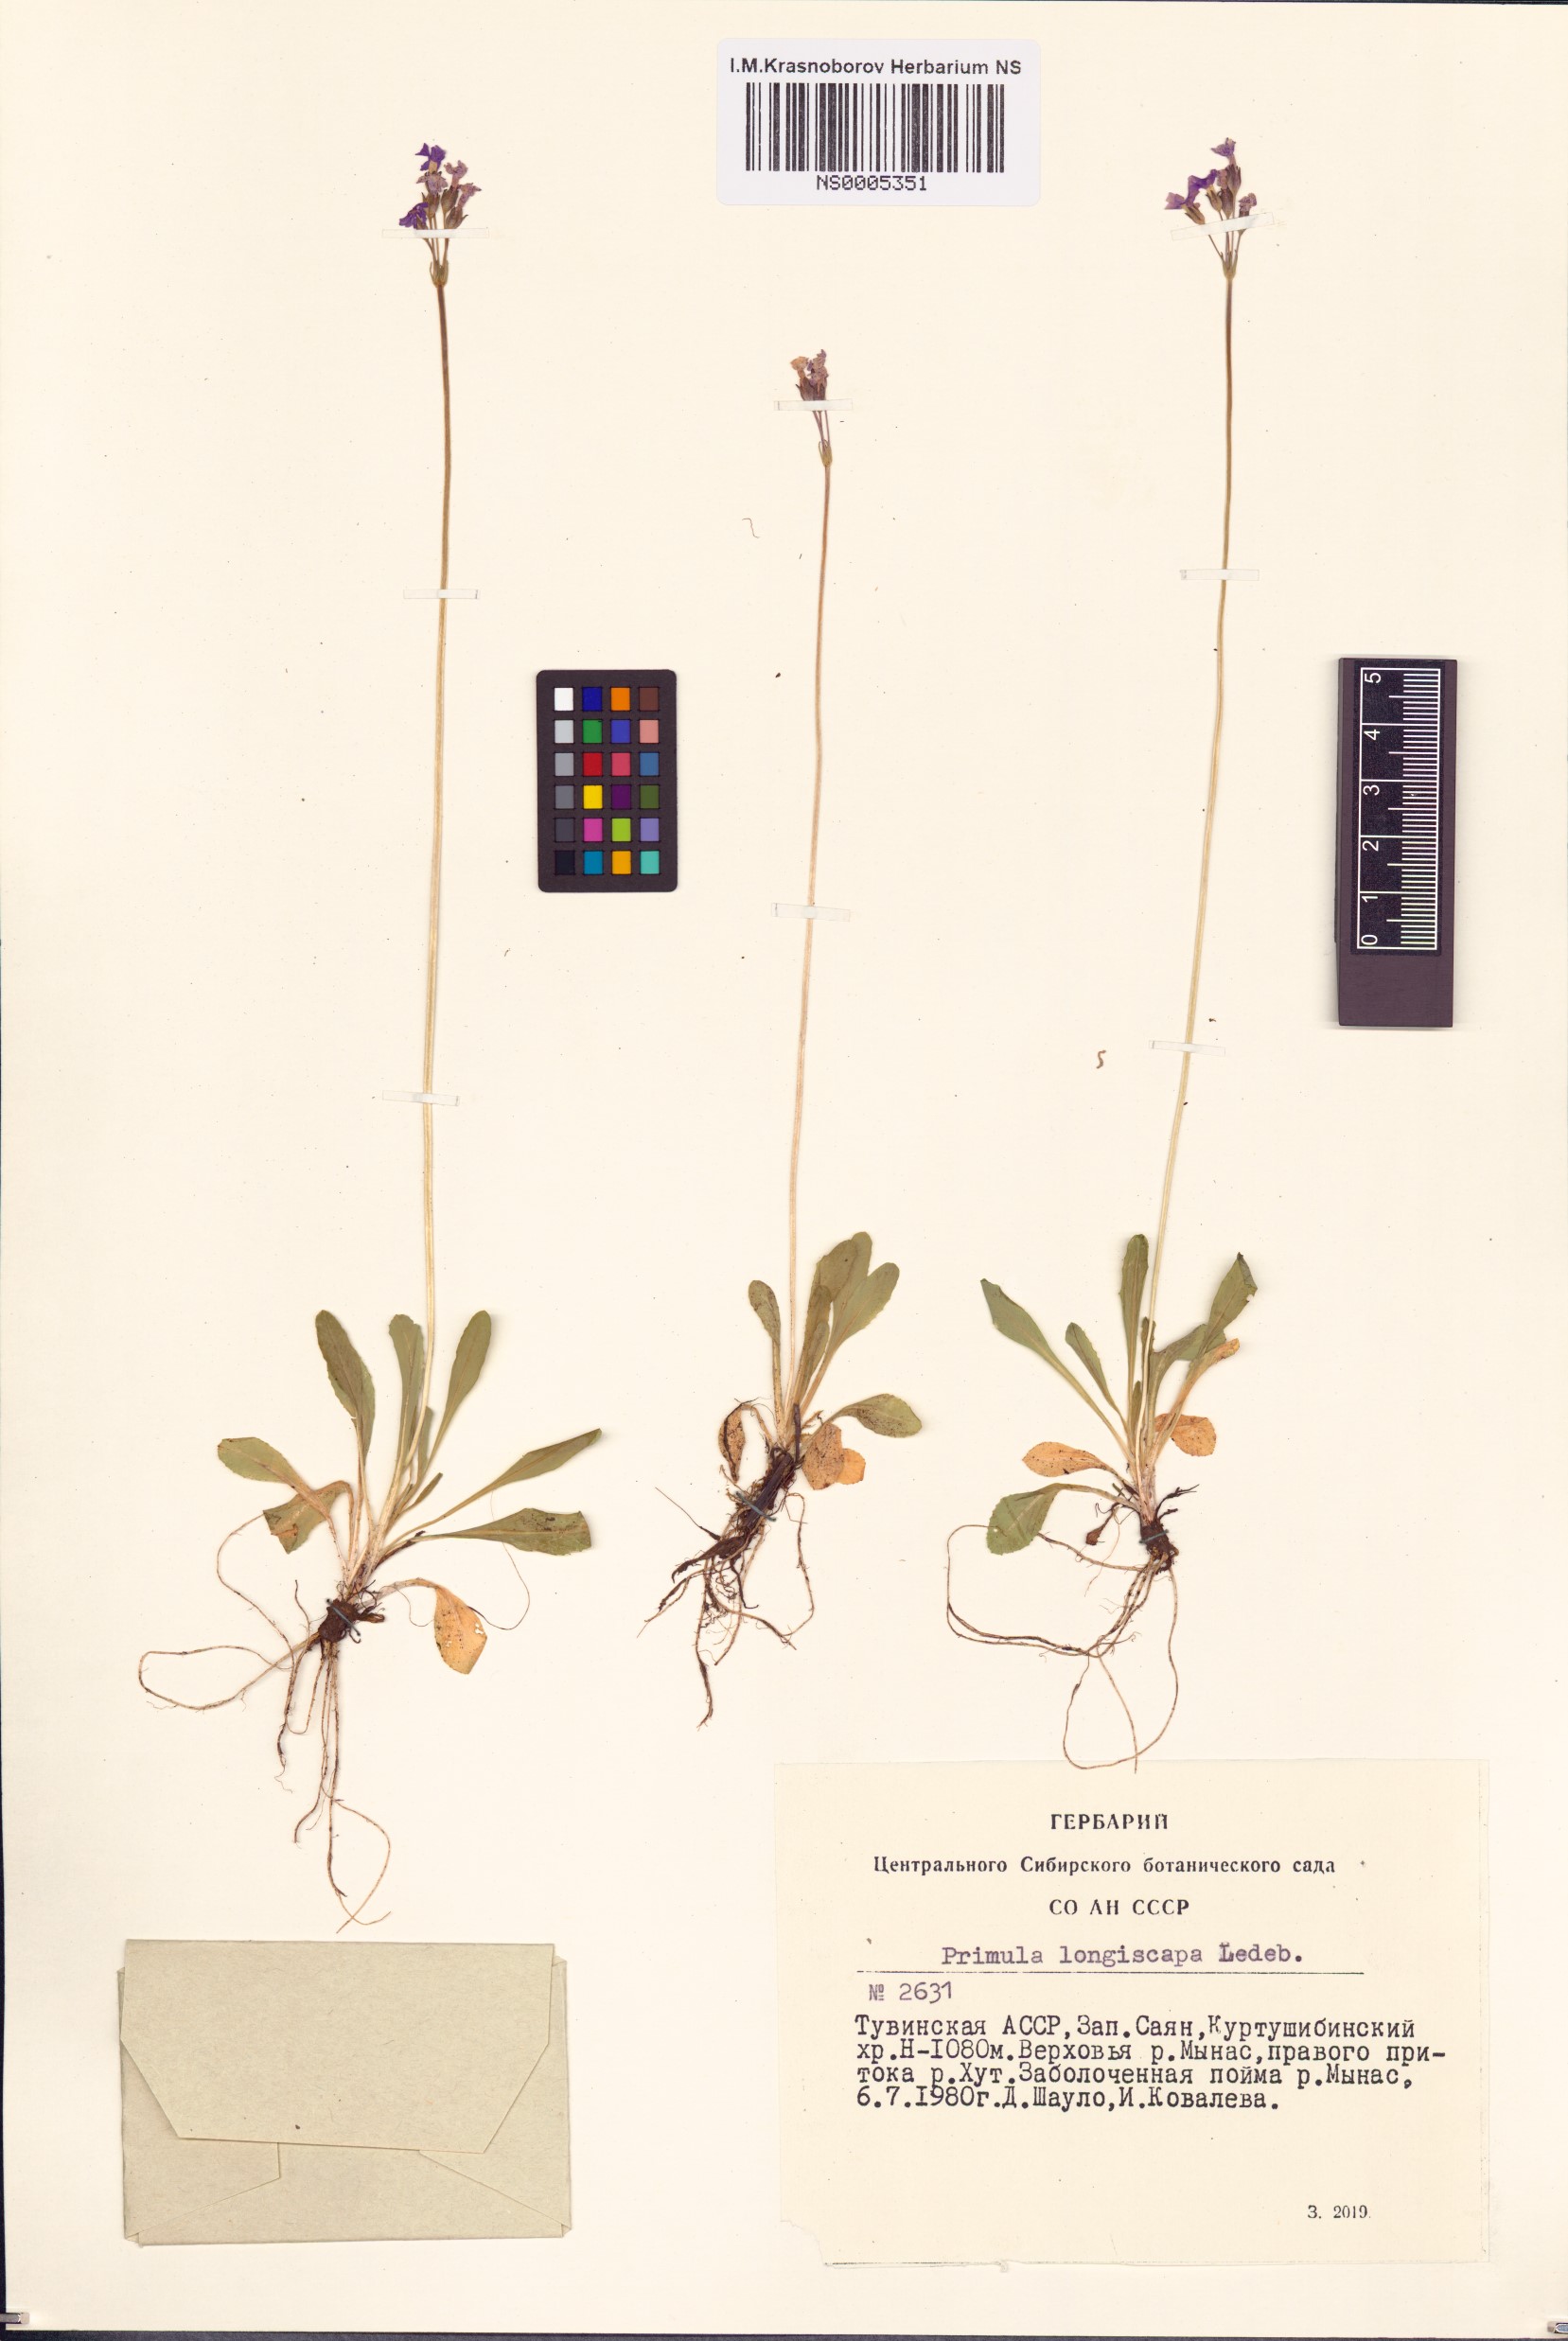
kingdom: Plantae
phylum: Tracheophyta
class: Magnoliopsida
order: Ericales
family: Primulaceae
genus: Primula
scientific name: Primula longiscapa
